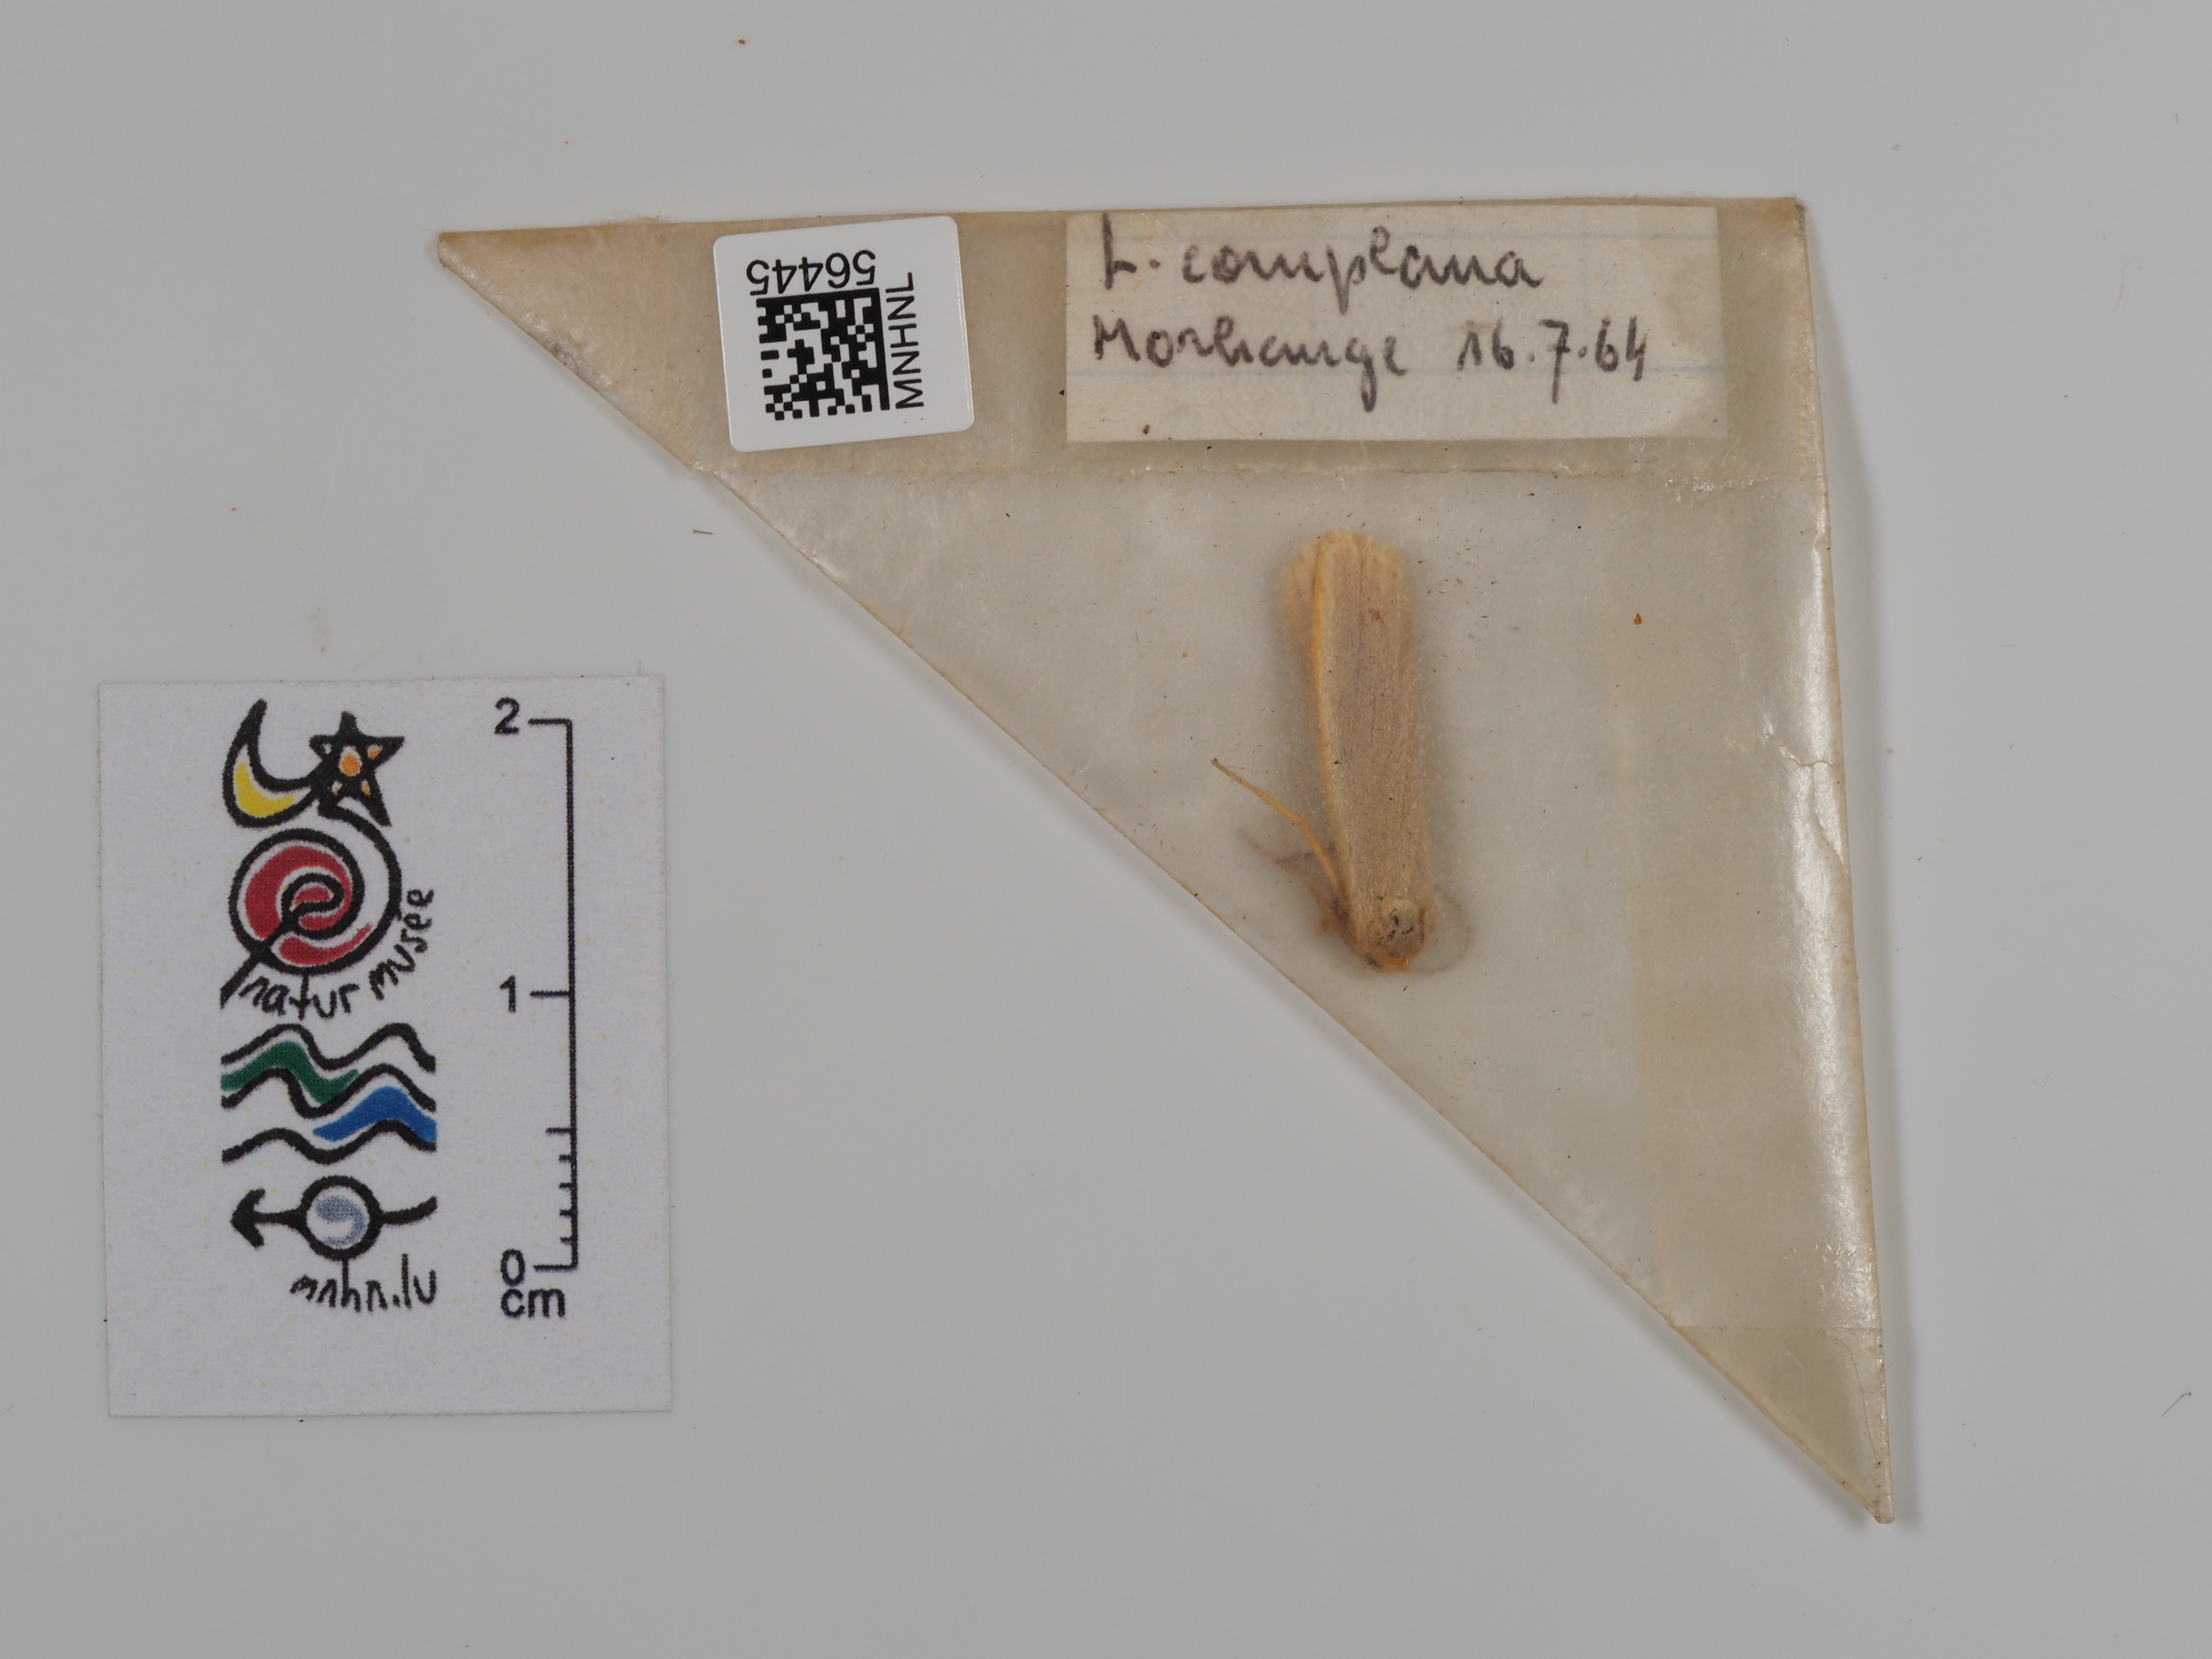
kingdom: Animalia
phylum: Arthropoda
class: Insecta
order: Lepidoptera
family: Erebidae
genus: Manulea
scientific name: Manulea complana
